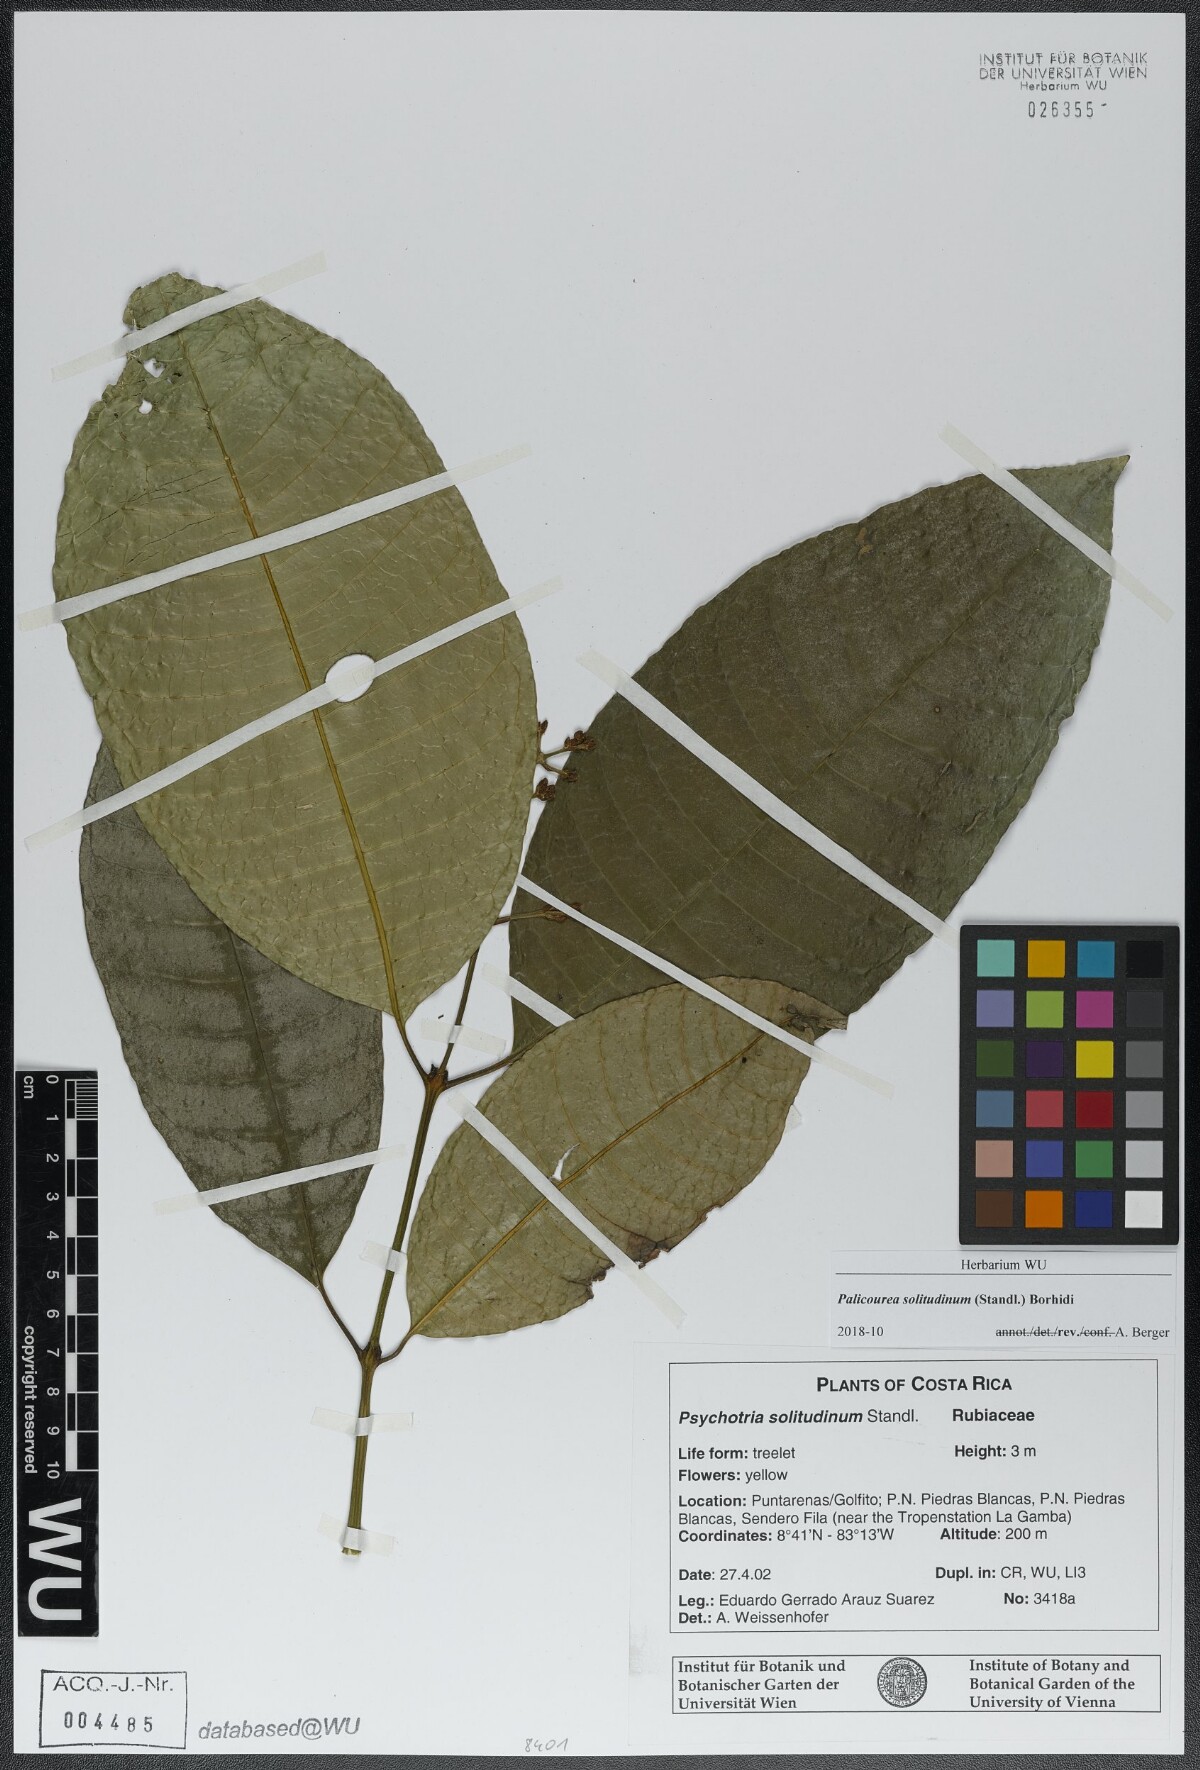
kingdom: Plantae
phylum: Tracheophyta
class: Magnoliopsida
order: Gentianales
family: Rubiaceae
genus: Palicourea
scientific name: Palicourea solitudinum
